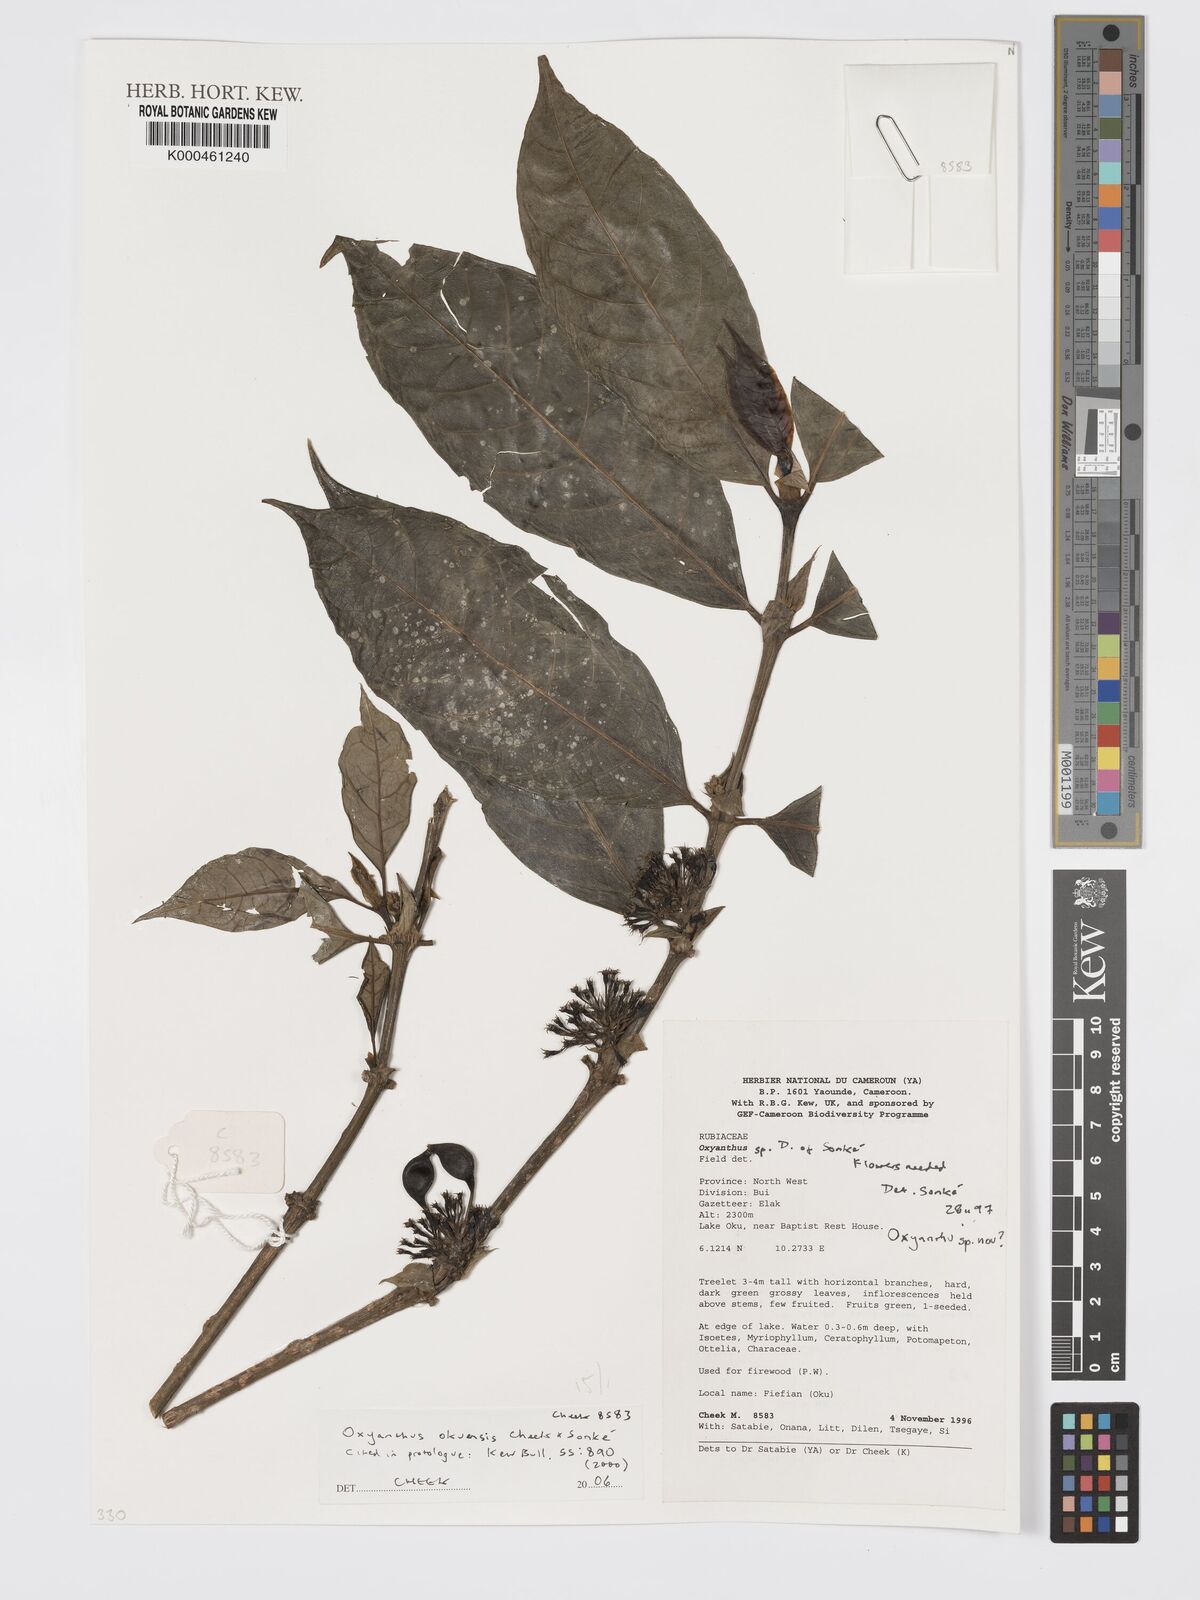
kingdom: Plantae
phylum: Tracheophyta
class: Magnoliopsida
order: Gentianales
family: Rubiaceae
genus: Oxyanthus
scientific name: Oxyanthus okuensis
